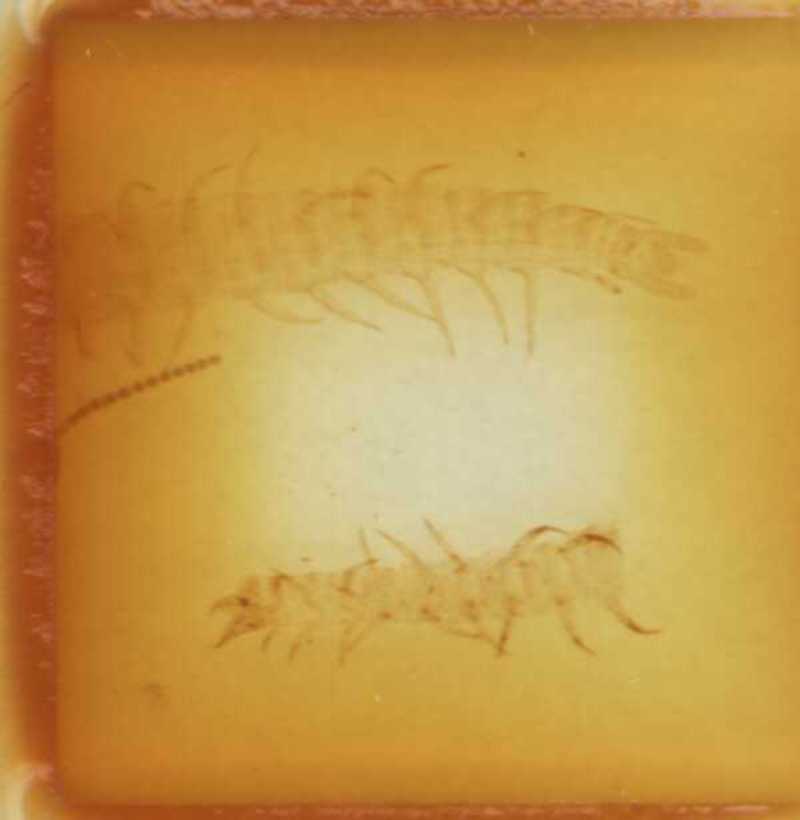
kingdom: Animalia
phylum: Arthropoda
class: Chilopoda
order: Geophilomorpha
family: Linotaeniidae
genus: Strigamia
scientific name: Strigamia transsilvanica
